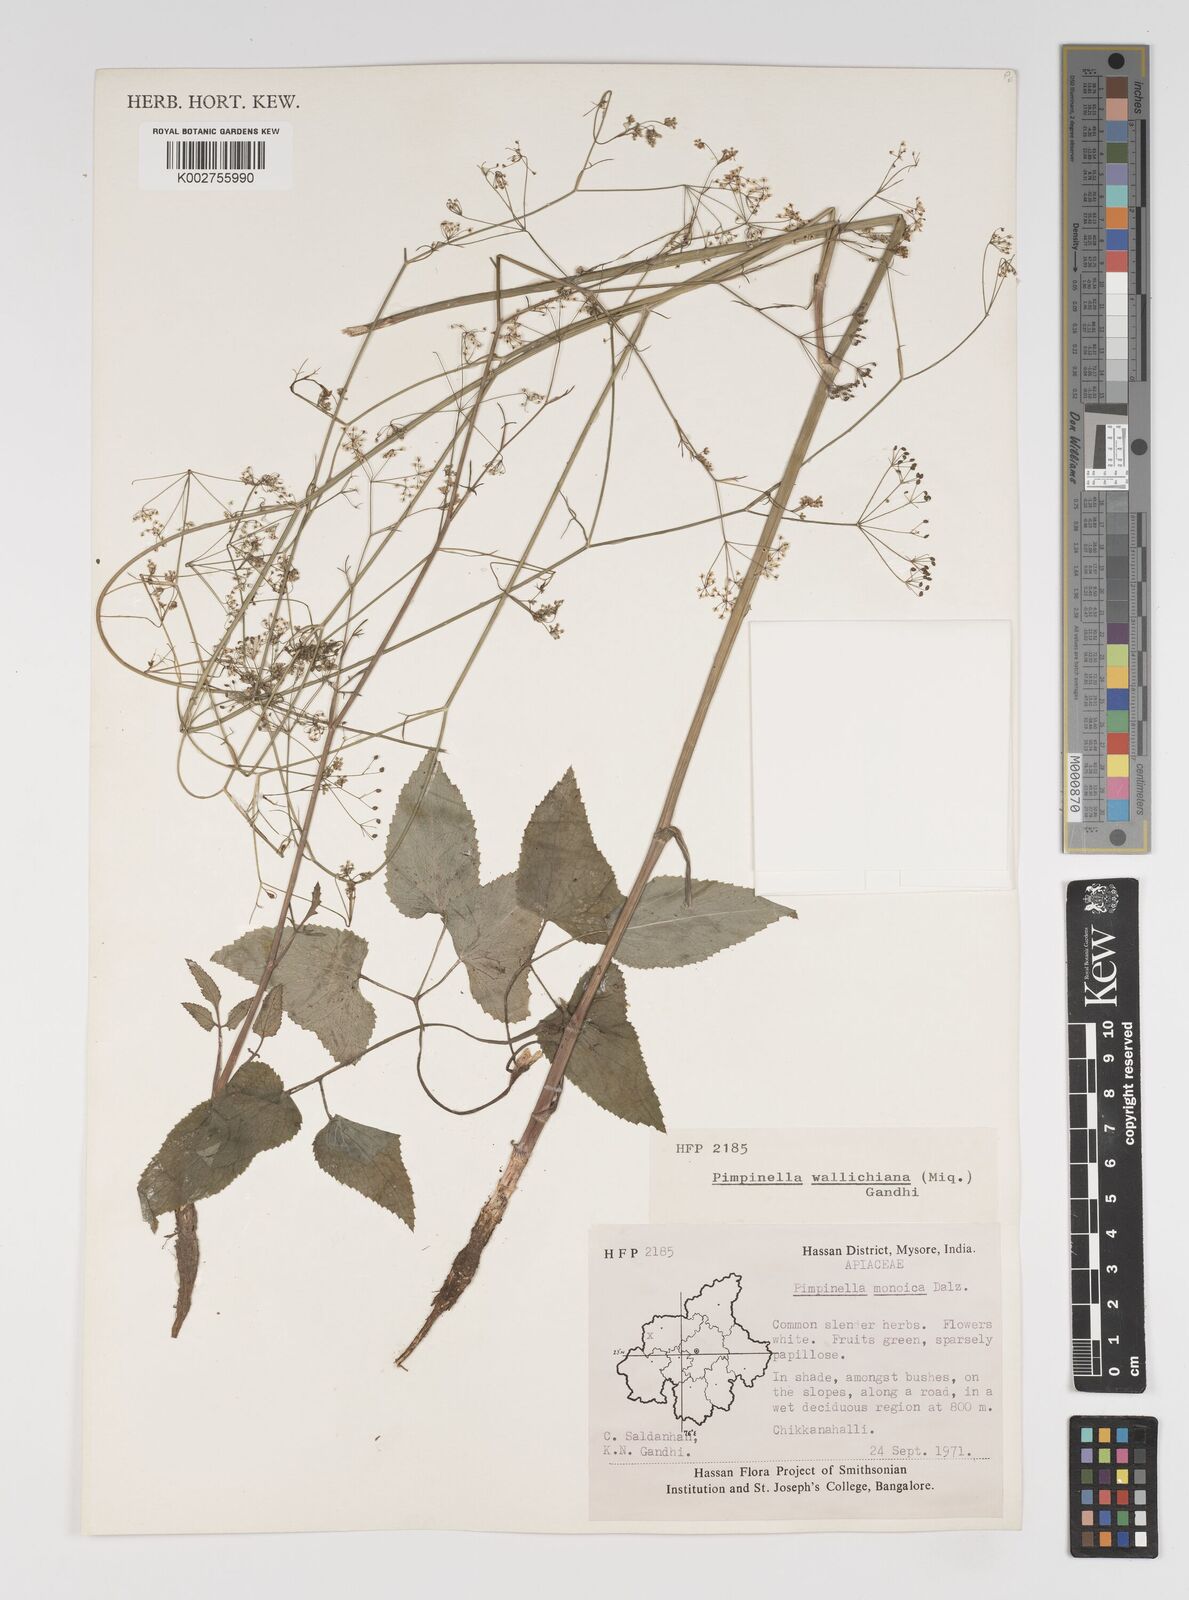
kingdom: Plantae
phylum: Tracheophyta
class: Magnoliopsida
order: Apiales
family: Apiaceae
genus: Pimpinella
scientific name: Pimpinella wallichiana
